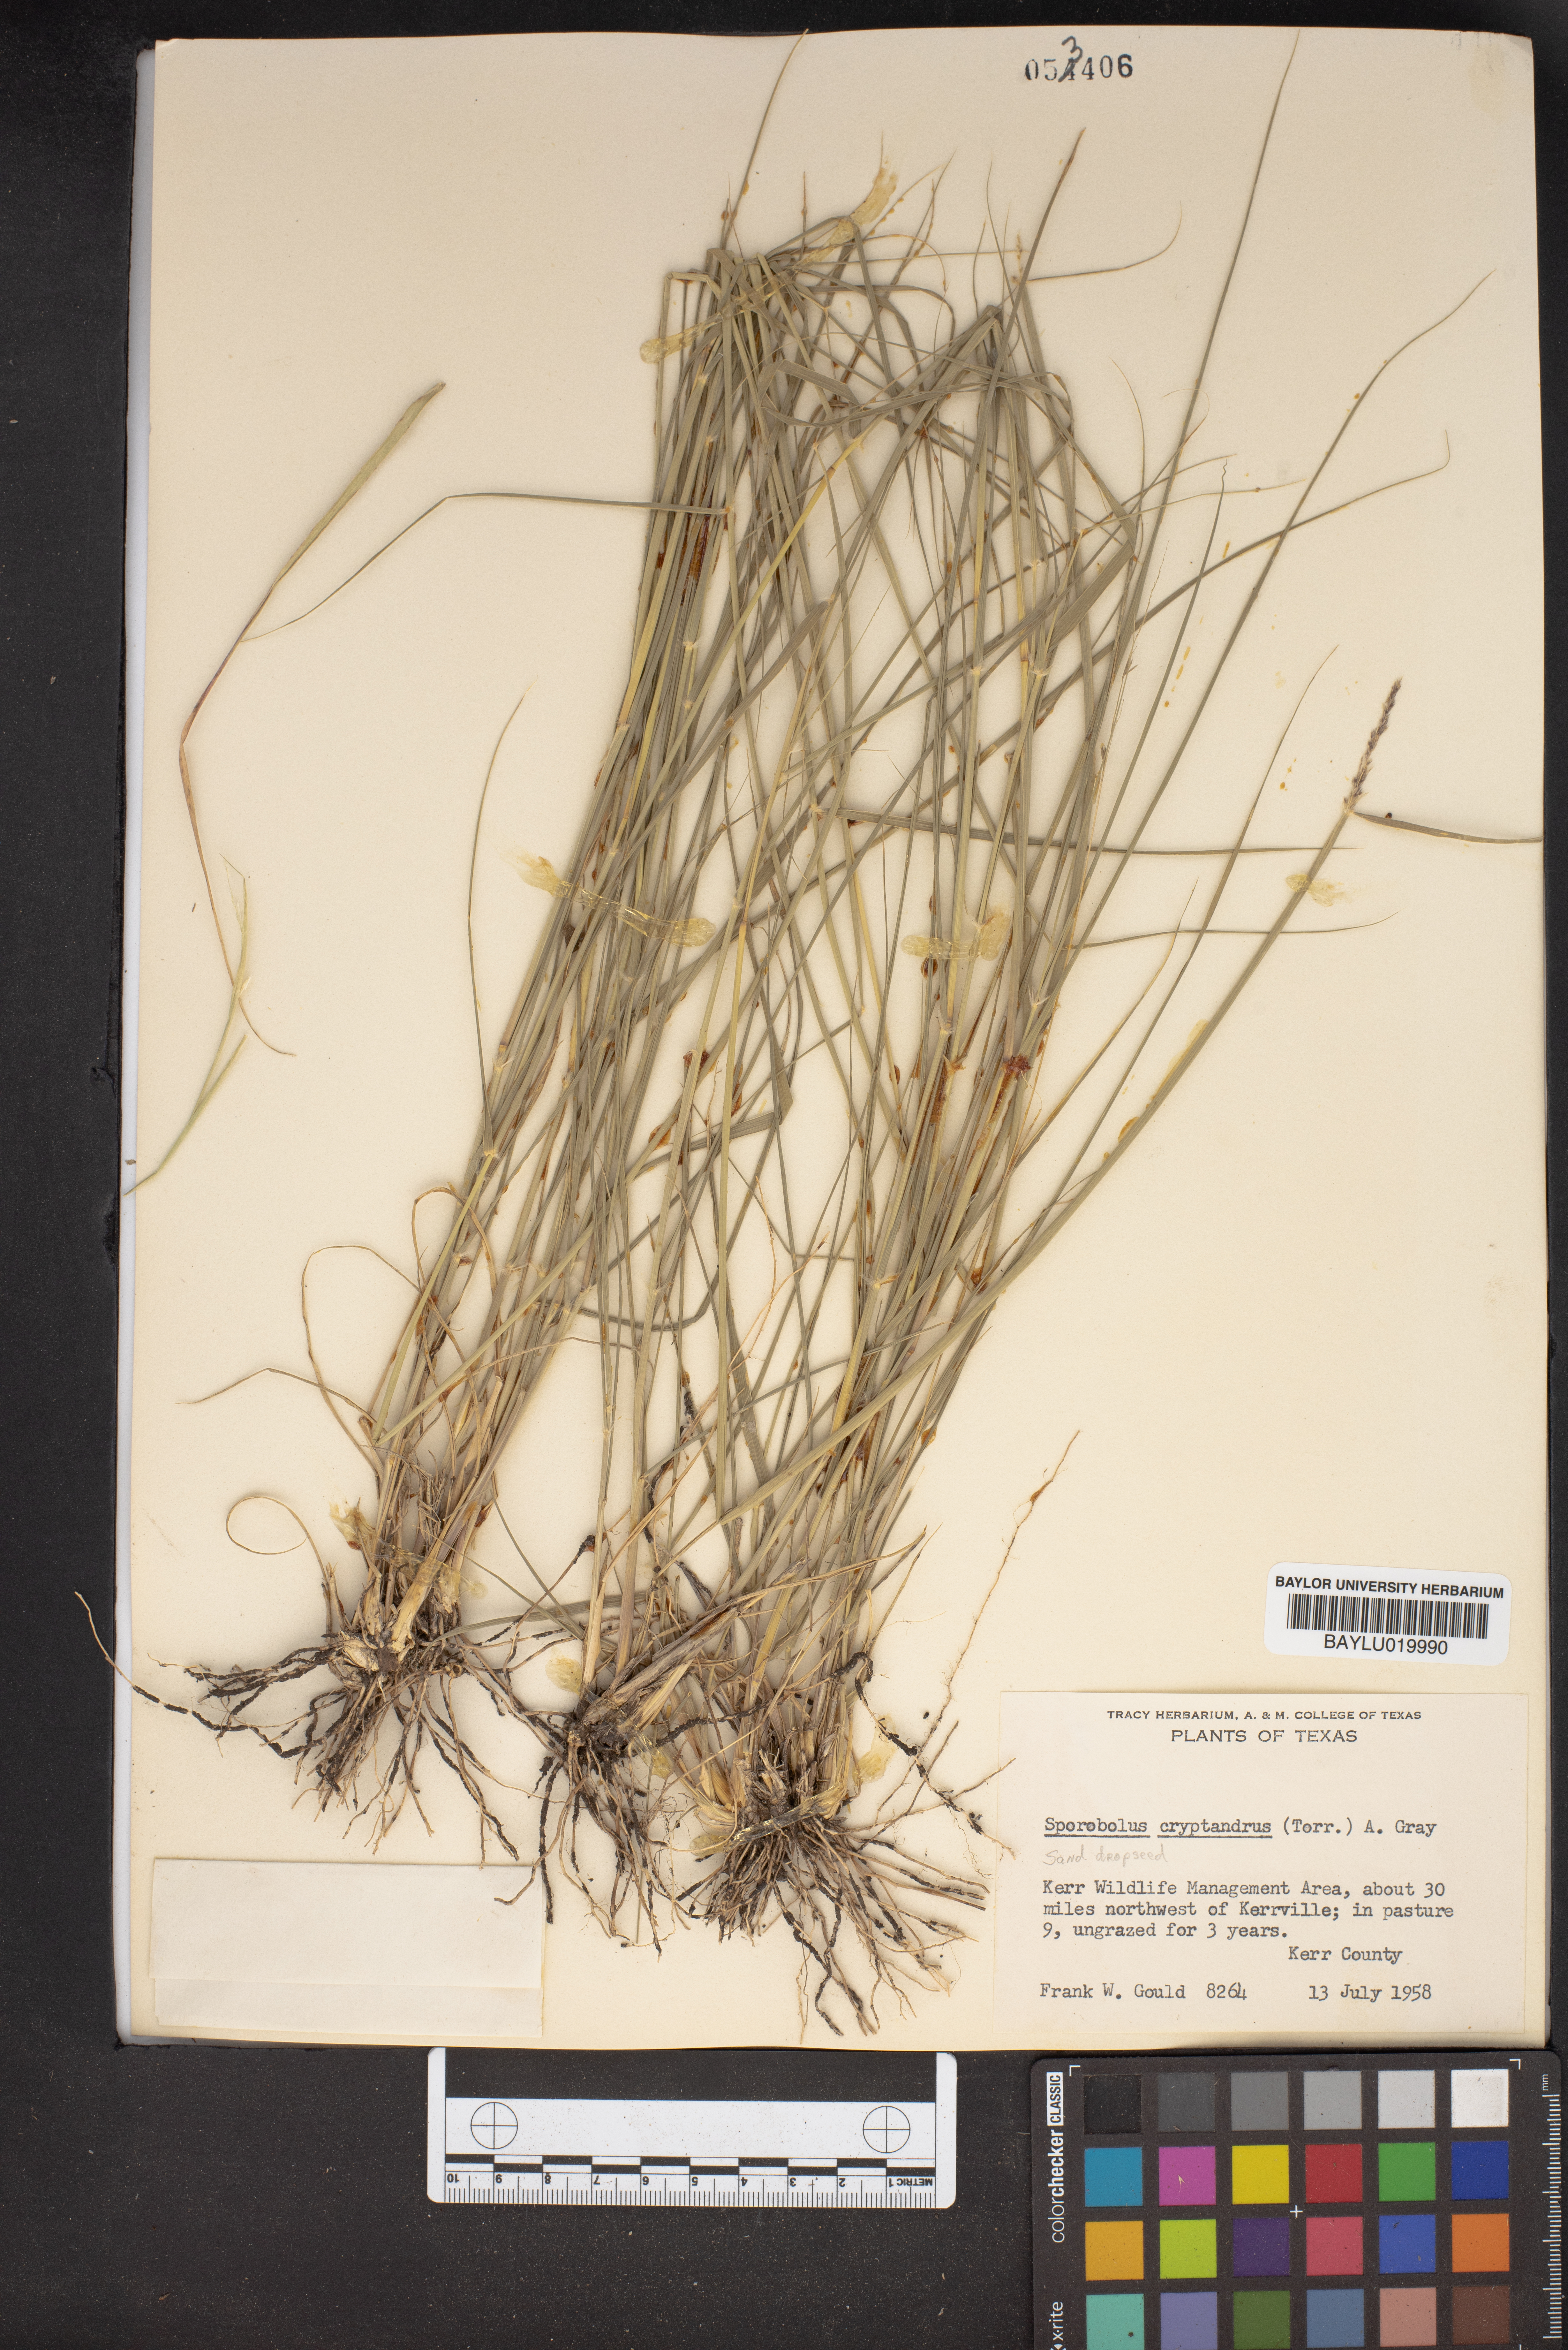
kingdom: Plantae
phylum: Tracheophyta
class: Liliopsida
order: Poales
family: Poaceae
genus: Sporobolus
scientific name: Sporobolus cryptandrus
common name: Sand dropseed
